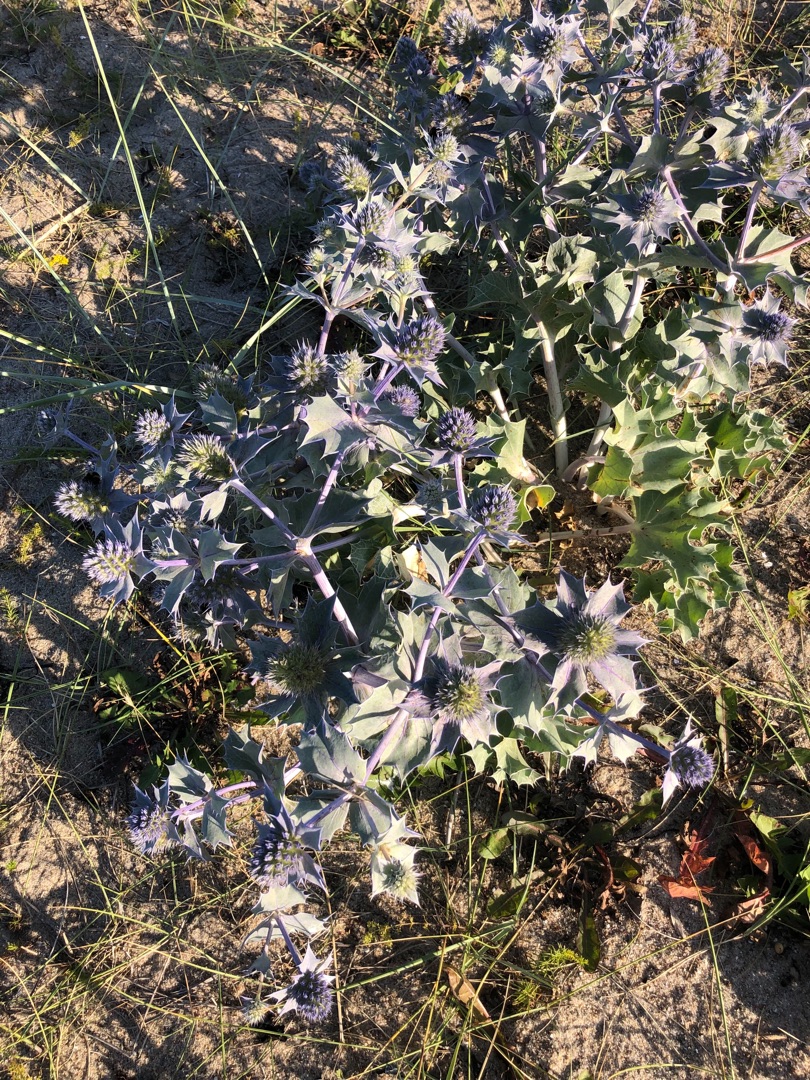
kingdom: Plantae
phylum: Tracheophyta
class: Magnoliopsida
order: Apiales
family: Apiaceae
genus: Eryngium
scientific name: Eryngium maritimum
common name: Strand-mandstro
